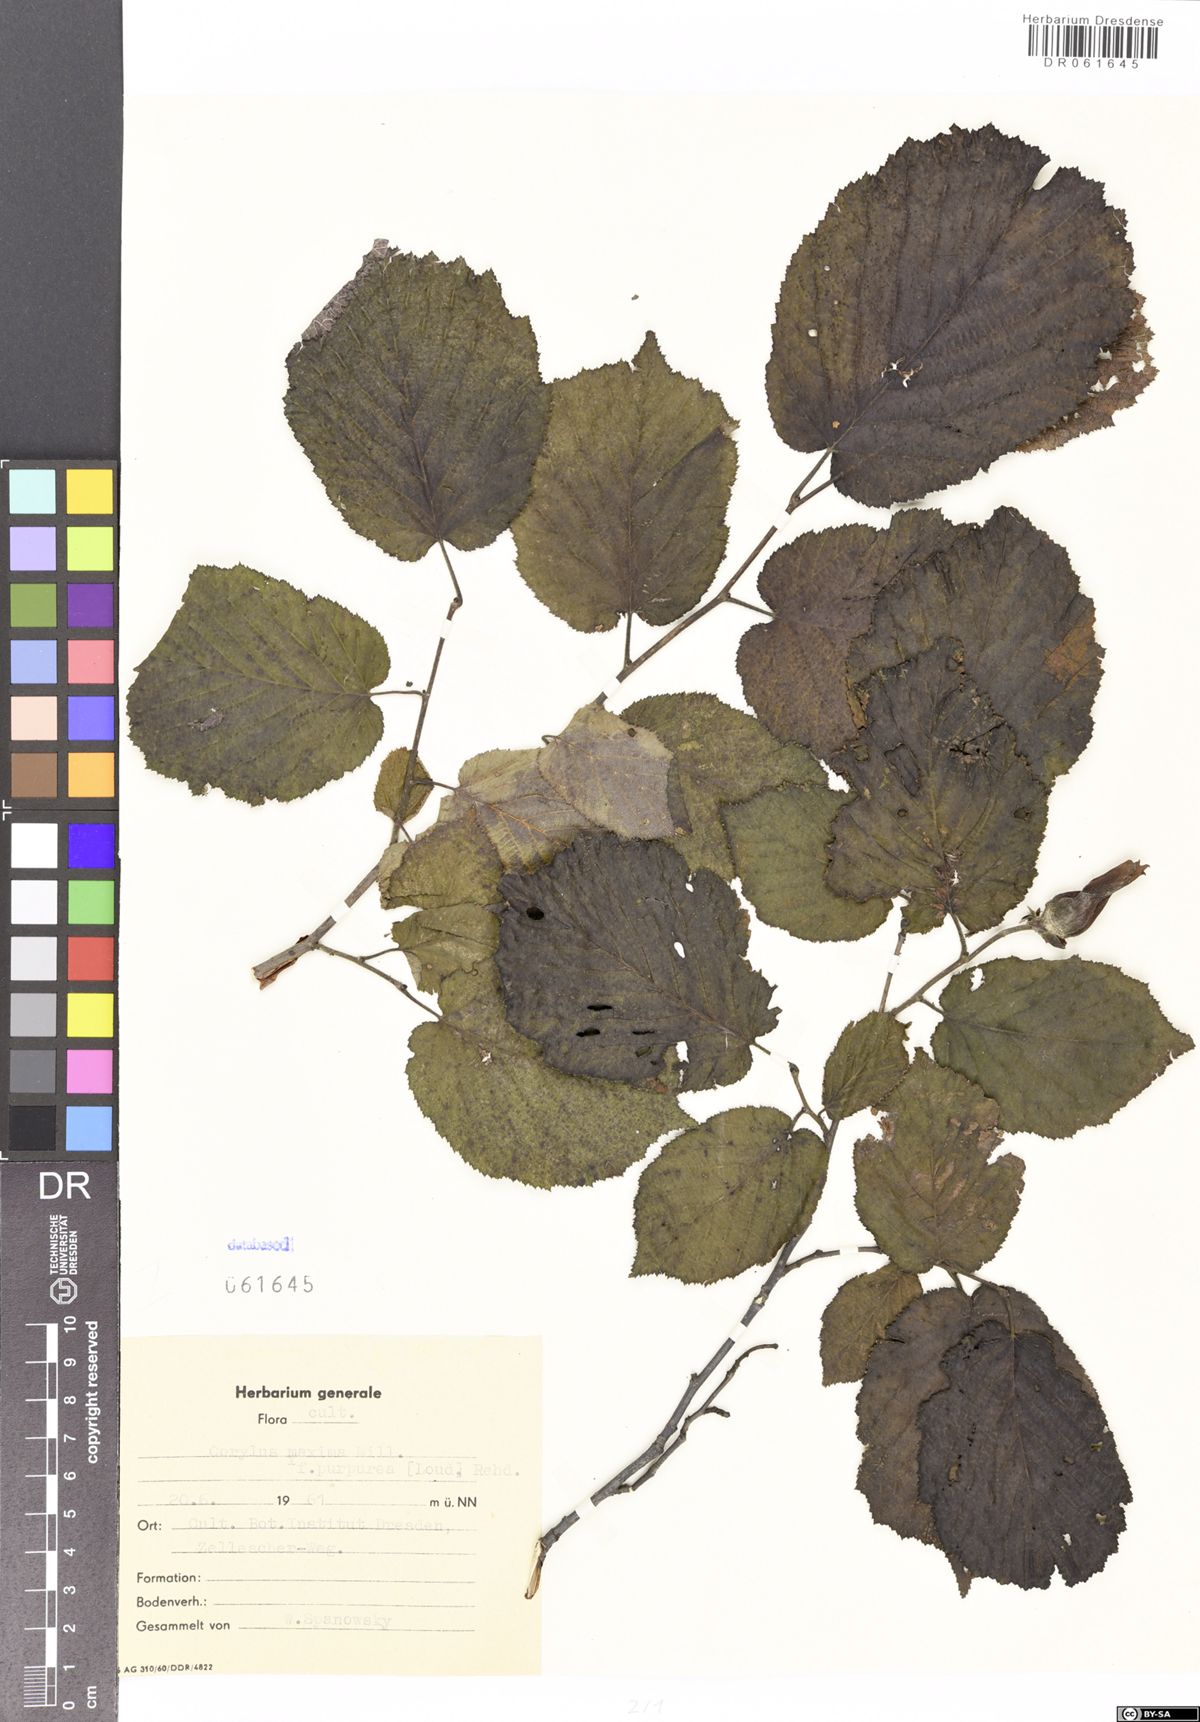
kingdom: Plantae
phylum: Tracheophyta
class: Magnoliopsida
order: Fagales
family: Betulaceae
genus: Corylus
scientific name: Corylus maxima
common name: Filbert
